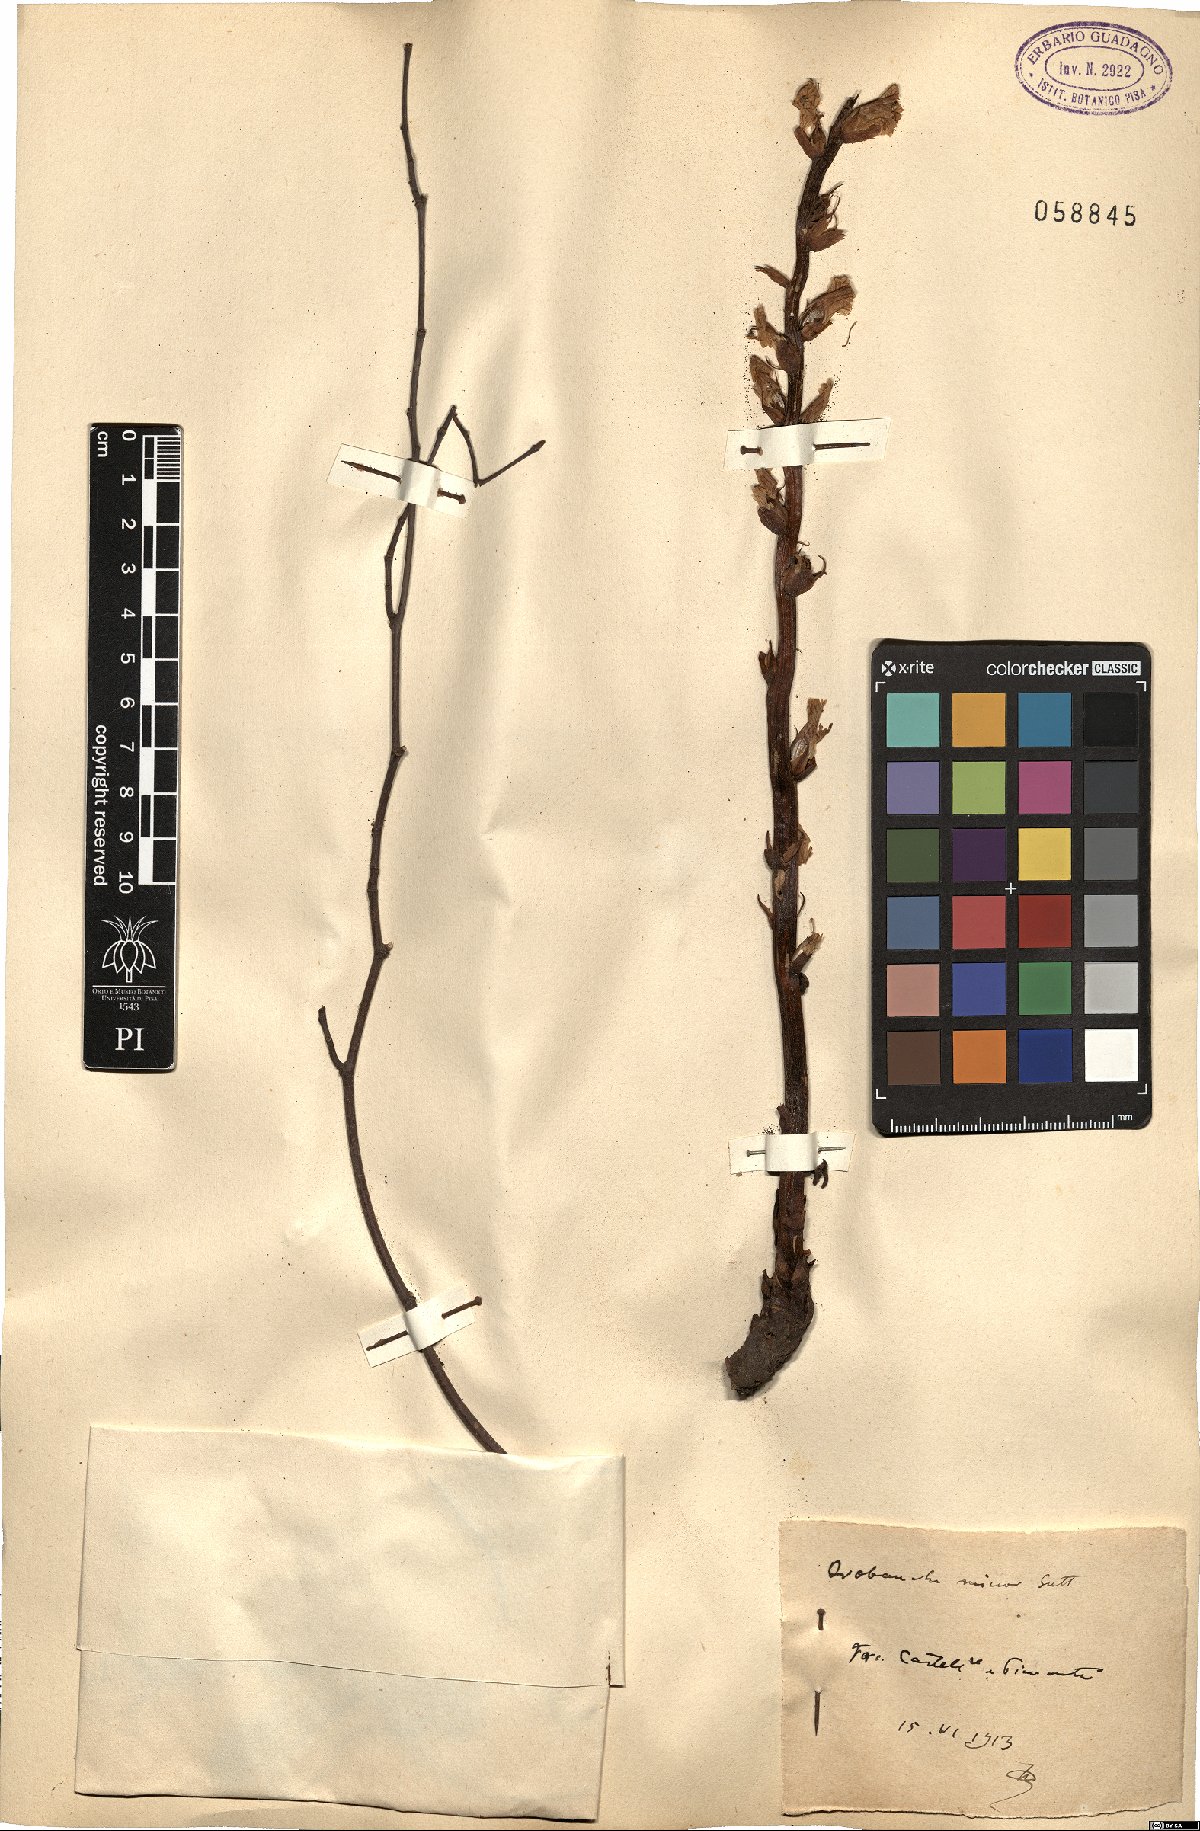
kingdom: Plantae
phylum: Tracheophyta
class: Magnoliopsida
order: Lamiales
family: Orobanchaceae
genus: Orobanche
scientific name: Orobanche minor
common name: Common broomrape
